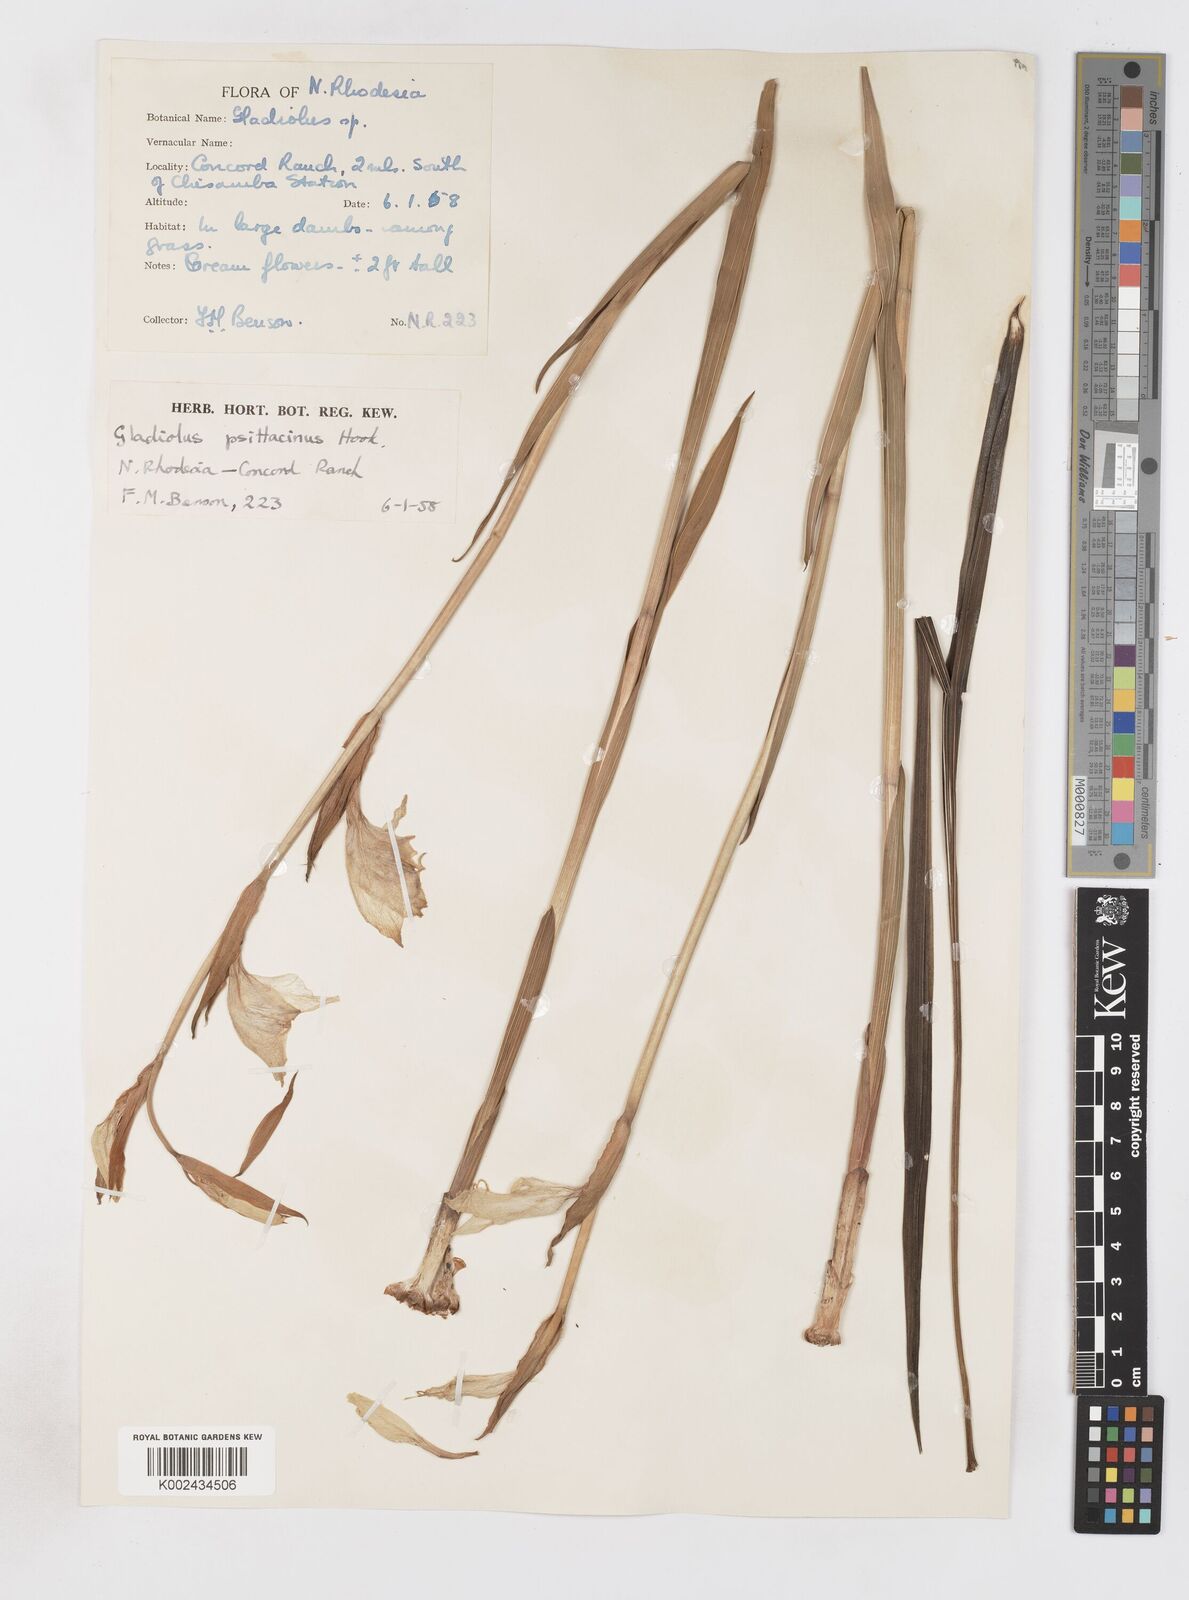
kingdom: Plantae
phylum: Tracheophyta
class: Liliopsida
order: Asparagales
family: Iridaceae
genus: Gladiolus
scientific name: Gladiolus dalenii
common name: Cornflag
